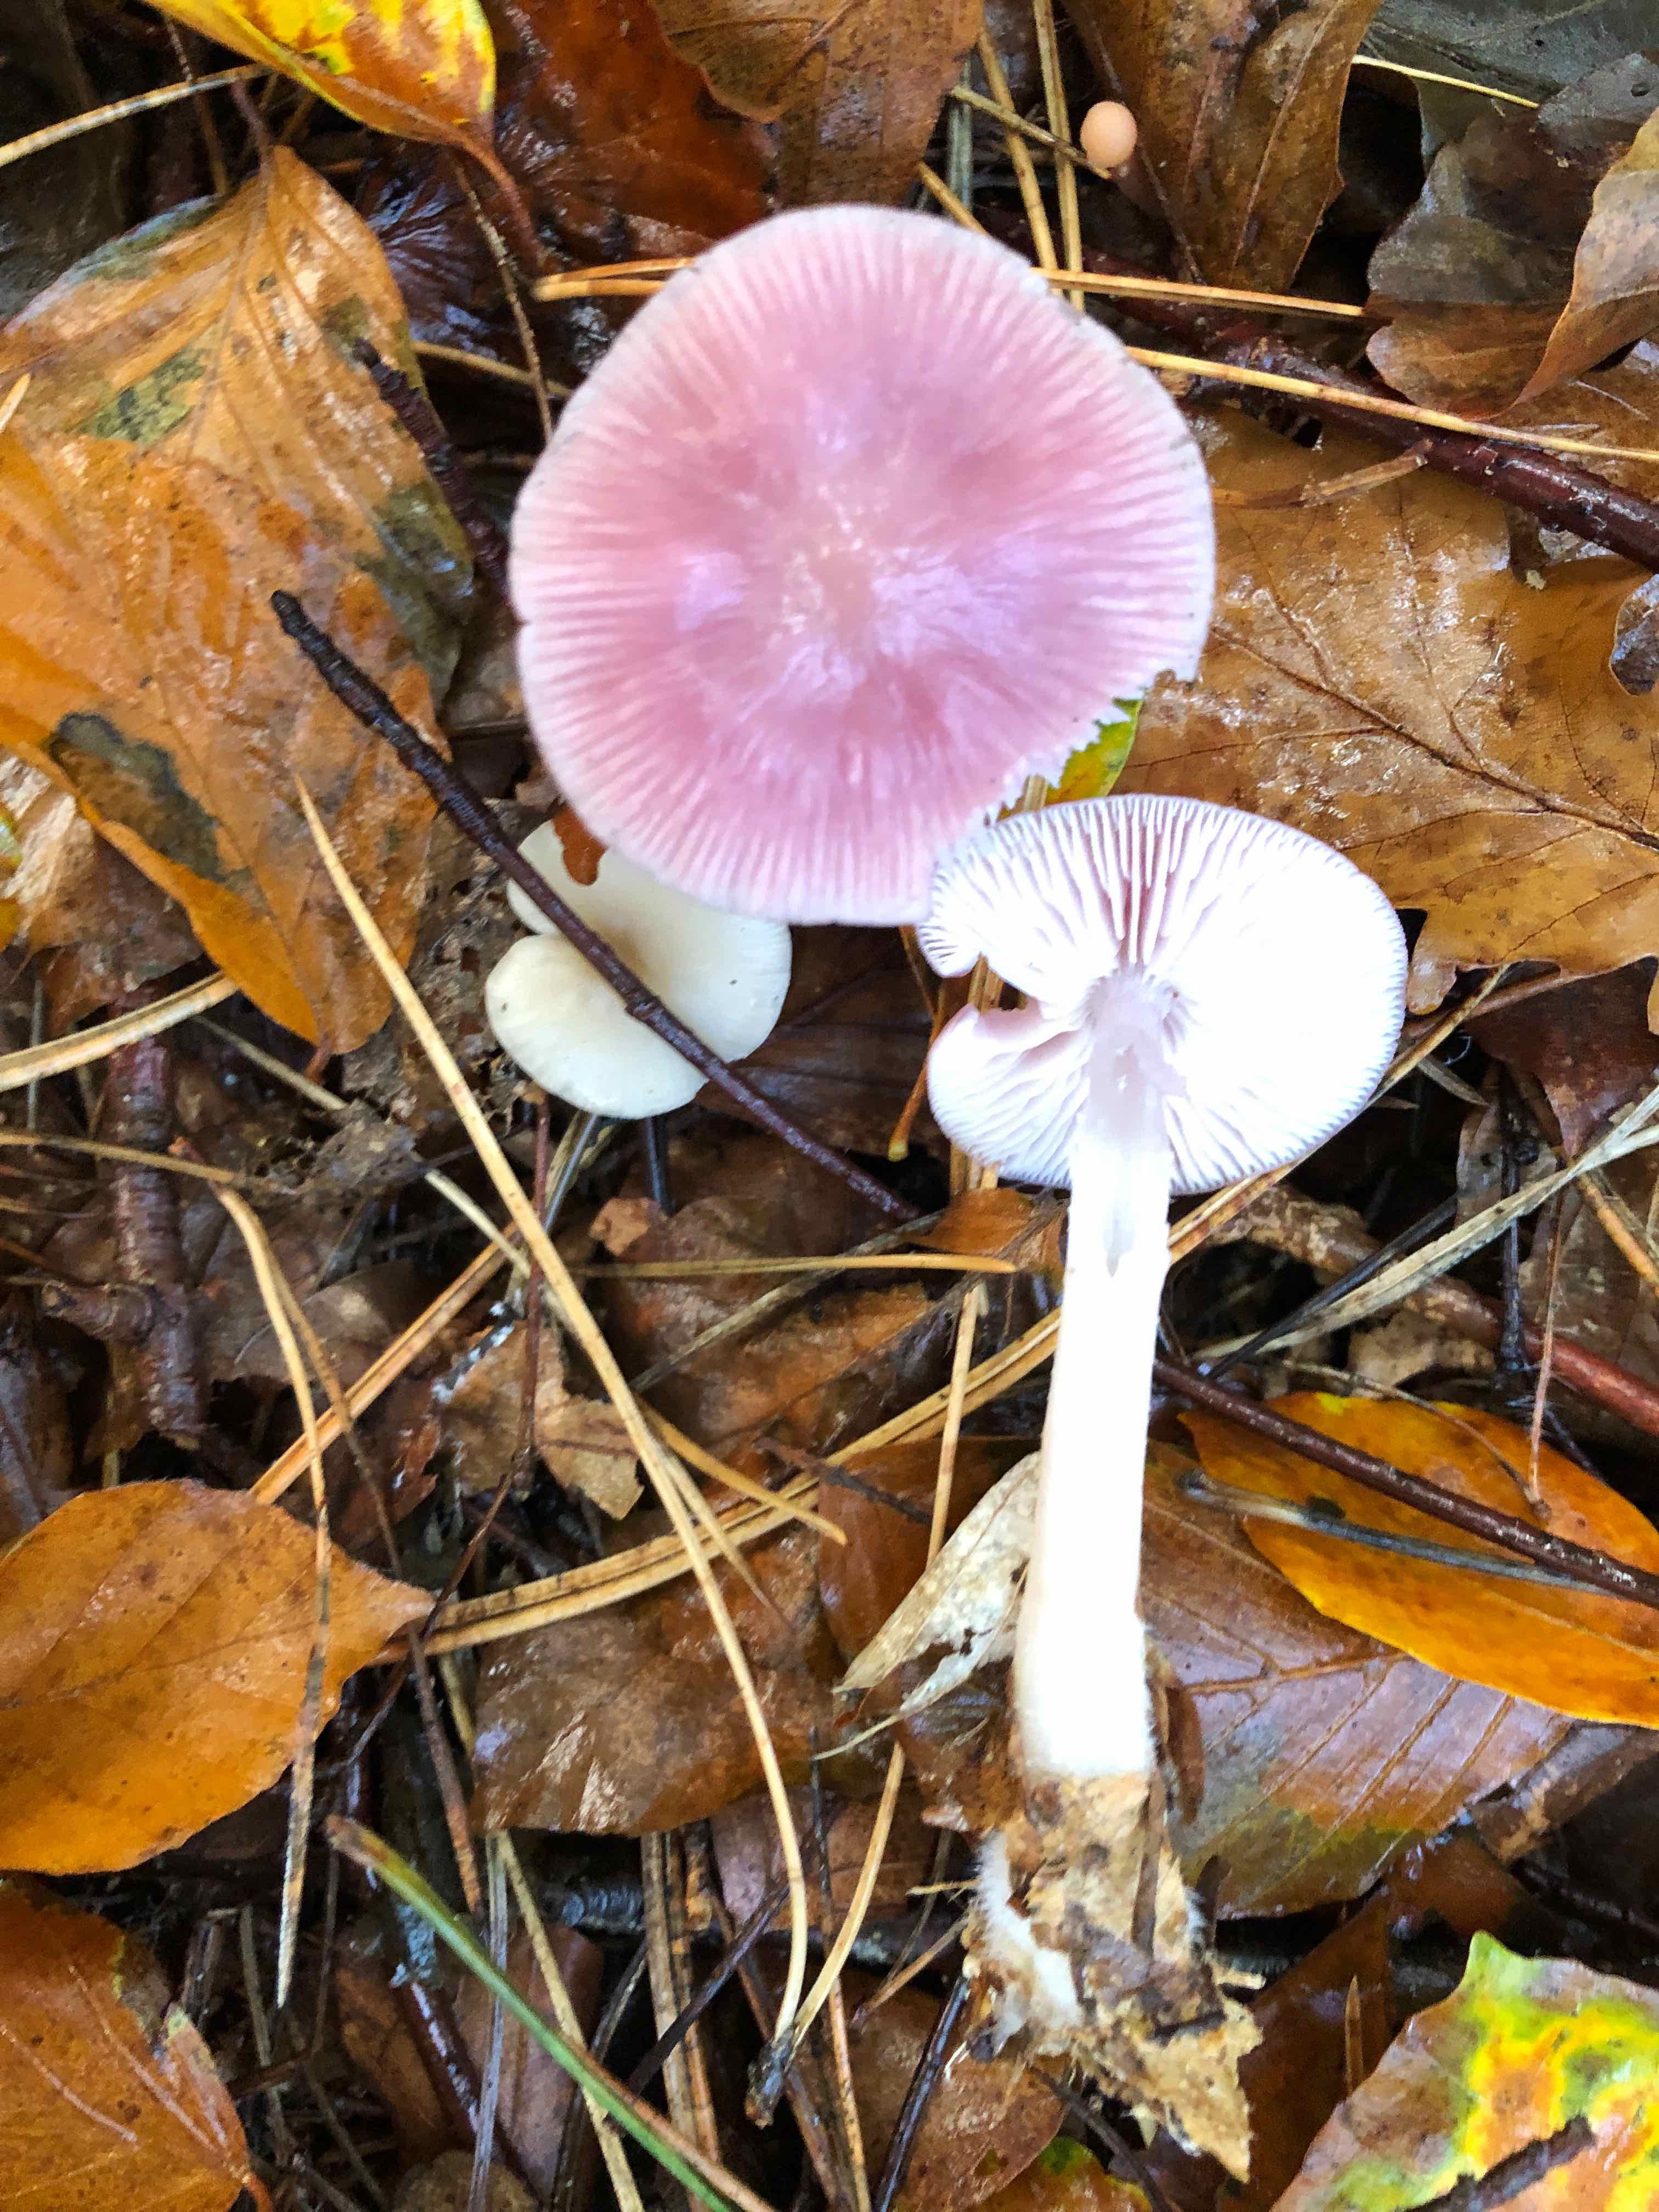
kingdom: Fungi
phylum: Basidiomycota
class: Agaricomycetes
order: Agaricales
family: Mycenaceae
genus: Mycena
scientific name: Mycena rosea
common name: rosa huesvamp
